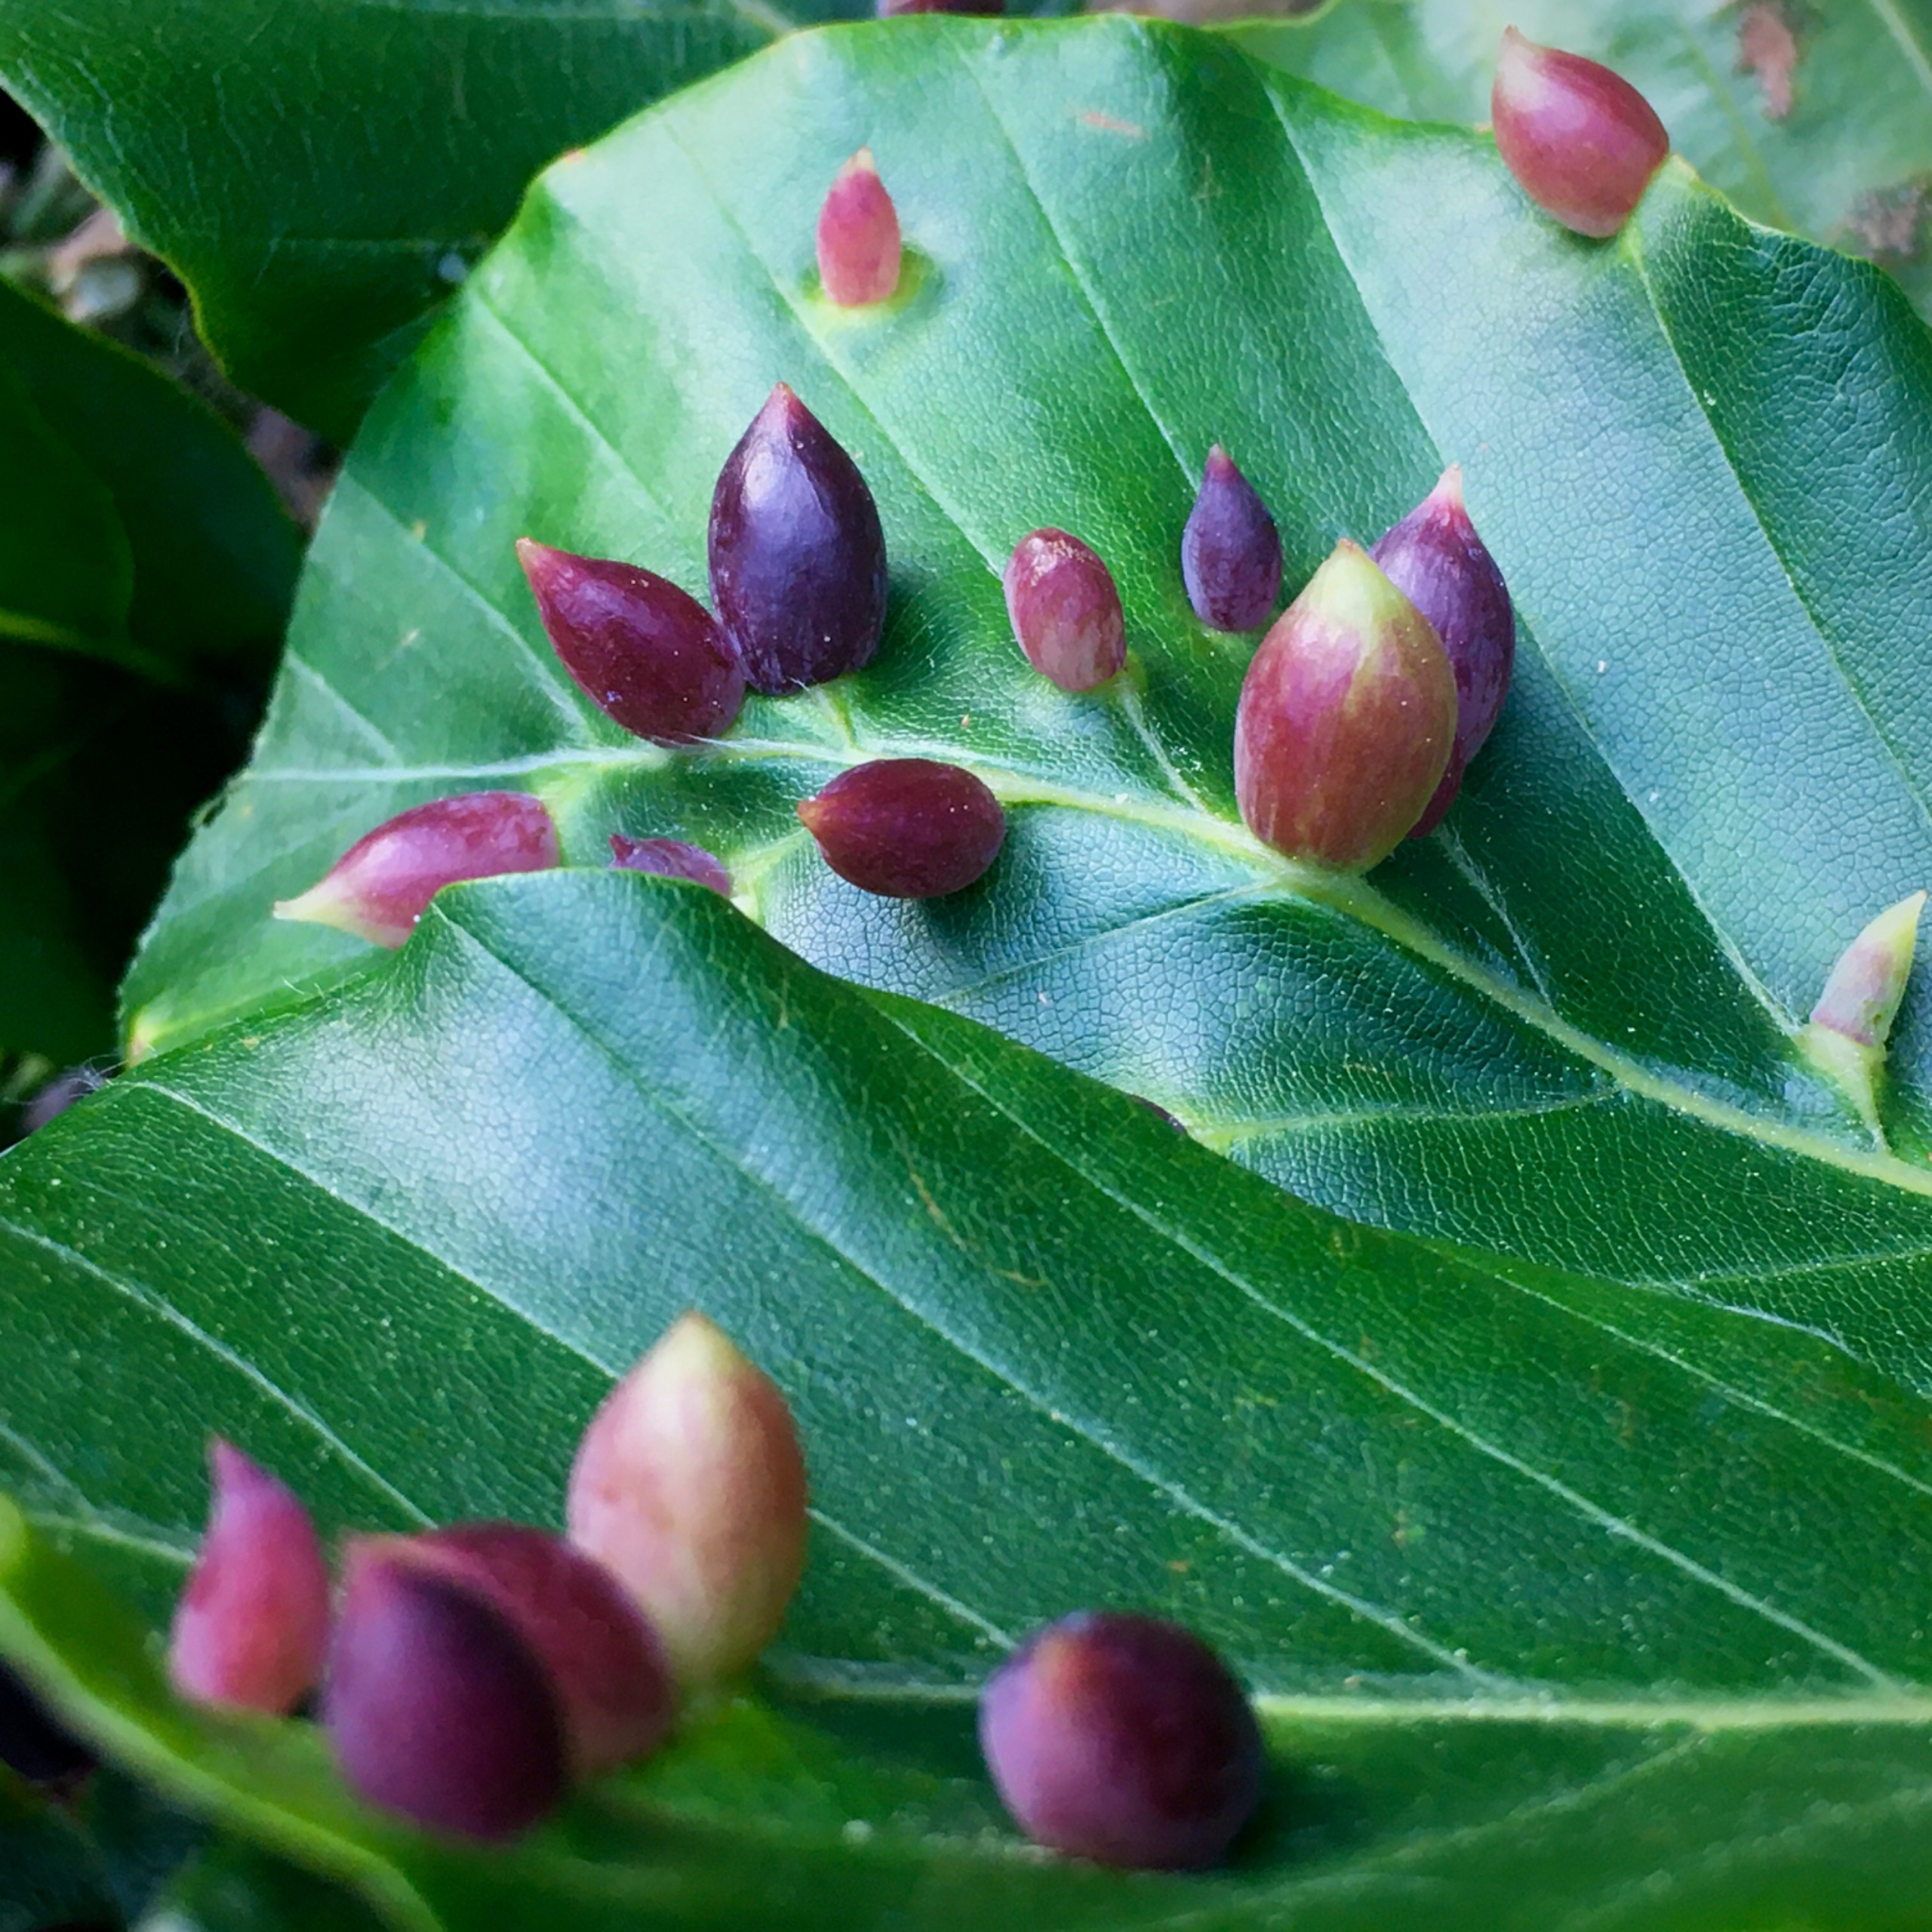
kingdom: Animalia
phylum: Arthropoda
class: Insecta
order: Diptera
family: Cecidomyiidae
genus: Mikiola
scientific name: Mikiola fagi
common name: Bøgegalmyg
